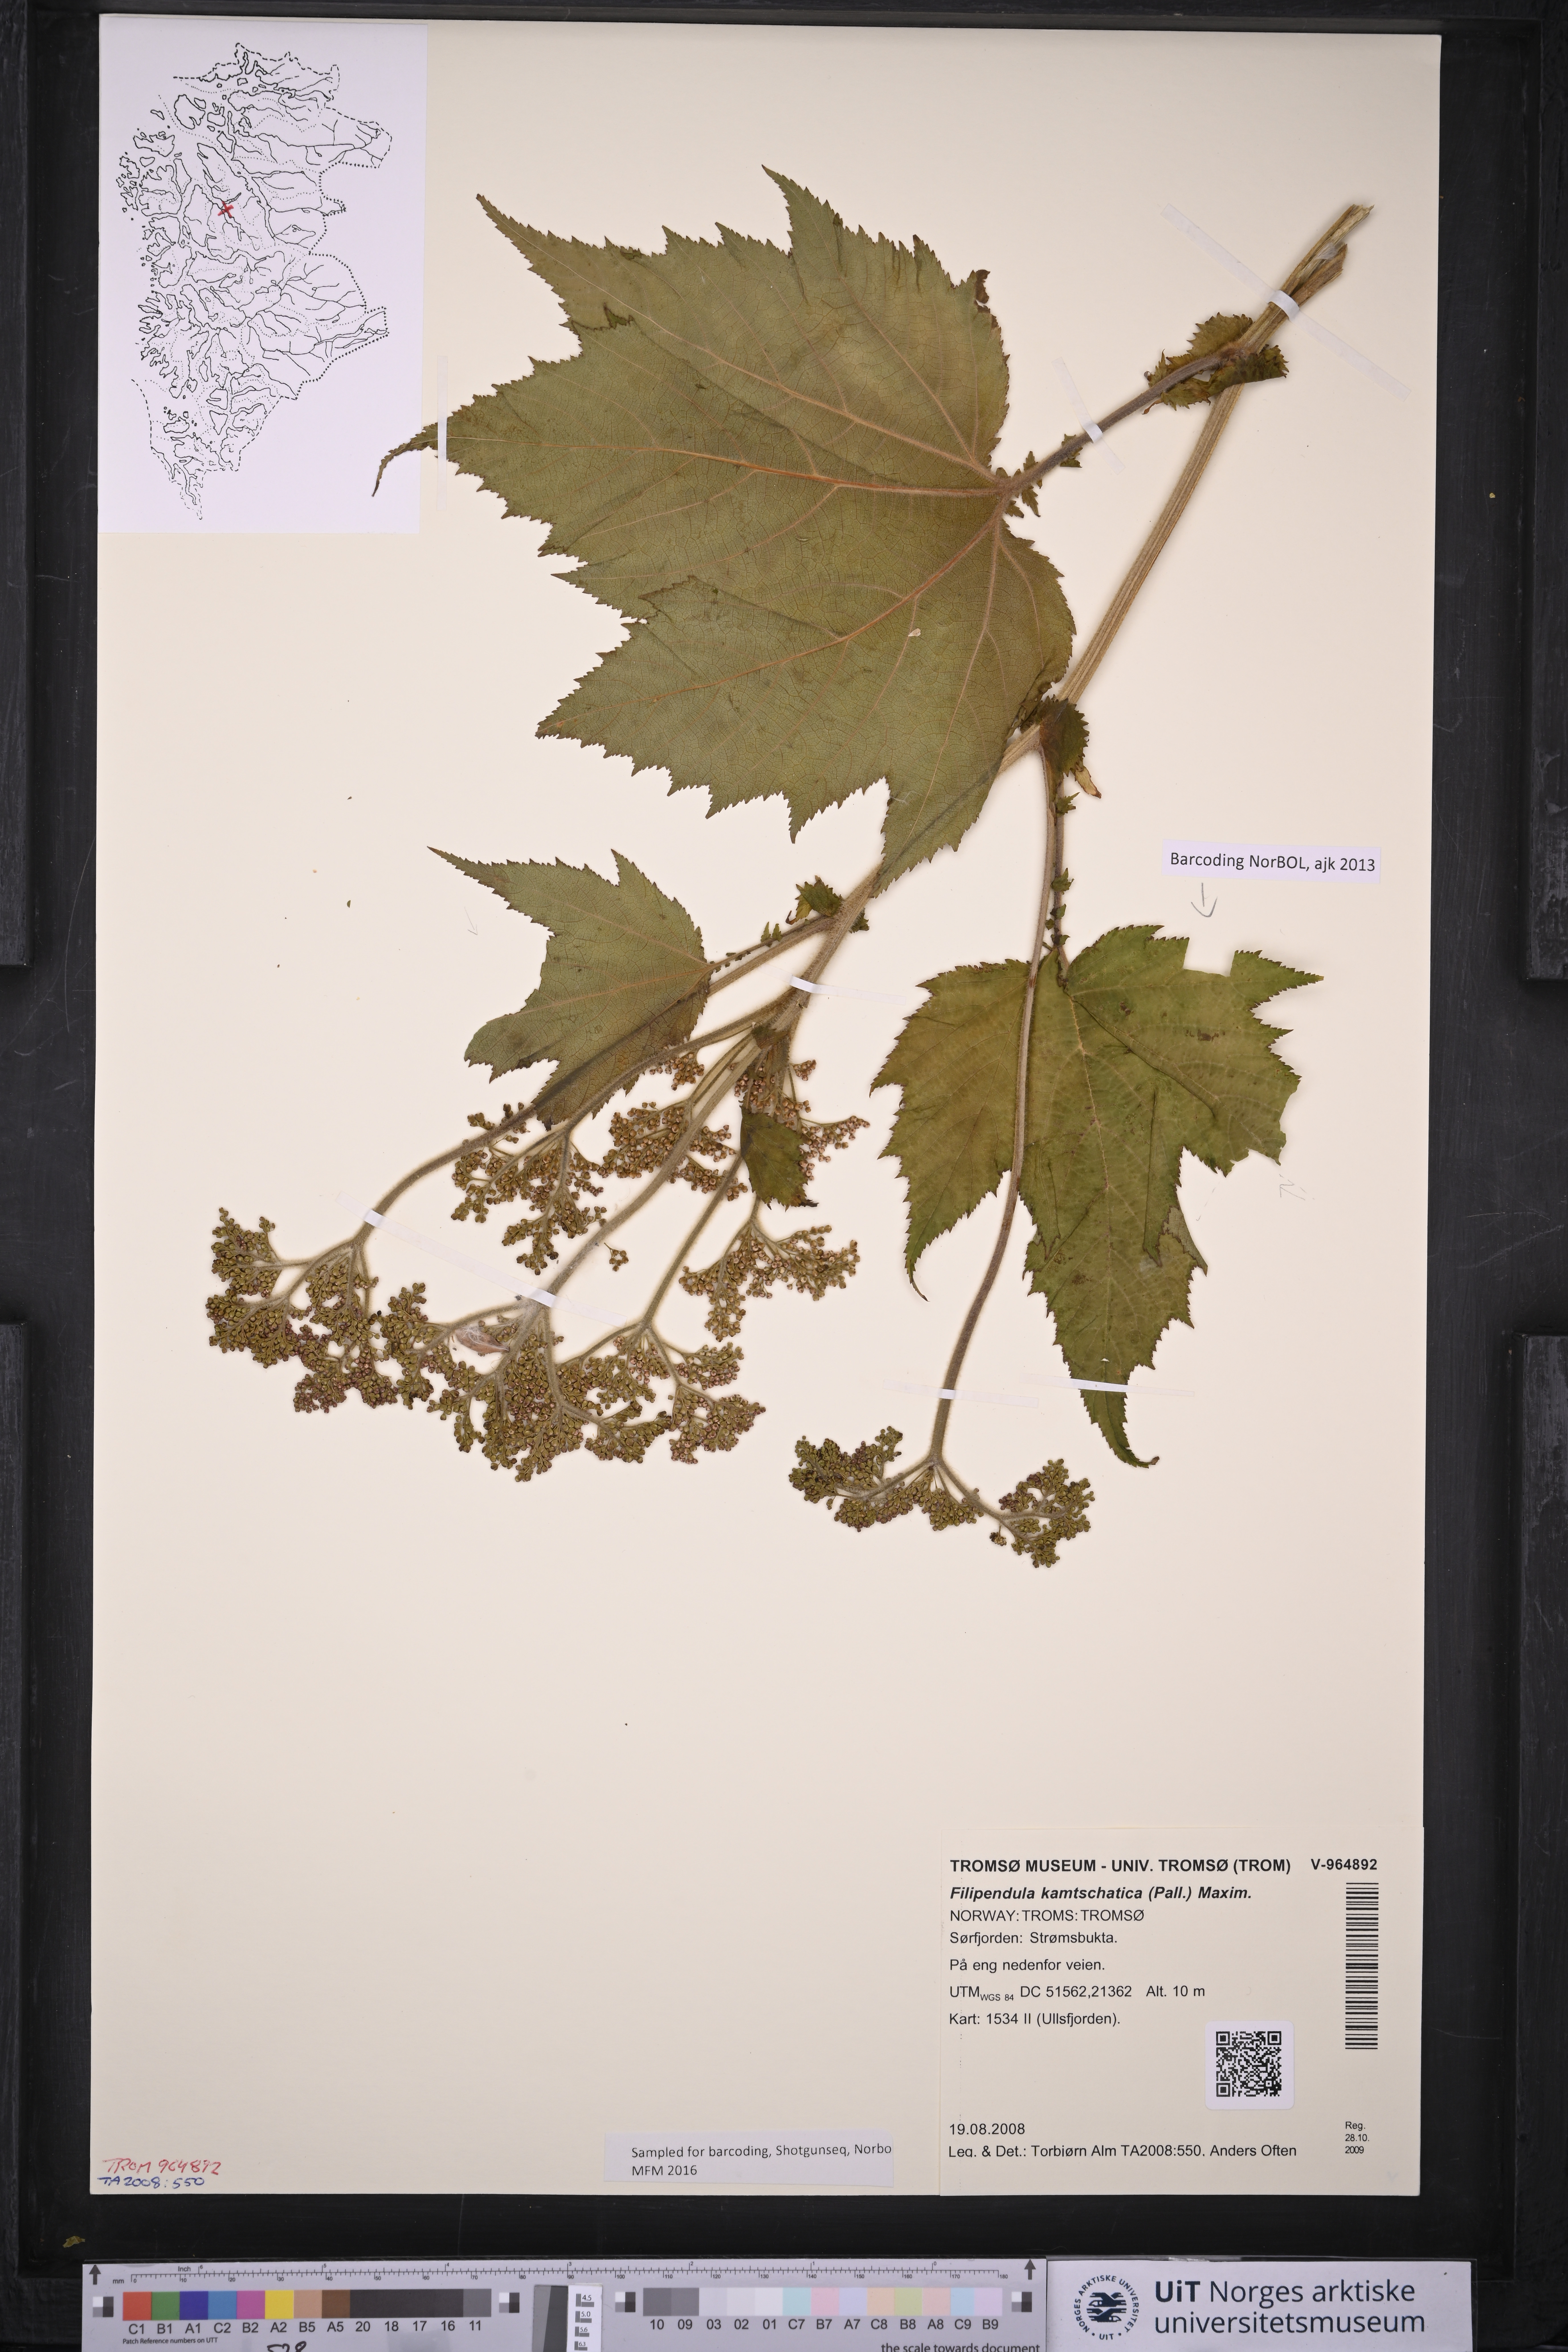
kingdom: Plantae
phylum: Tracheophyta
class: Magnoliopsida
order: Rosales
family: Rosaceae
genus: Filipendula
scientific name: Filipendula camschatica
